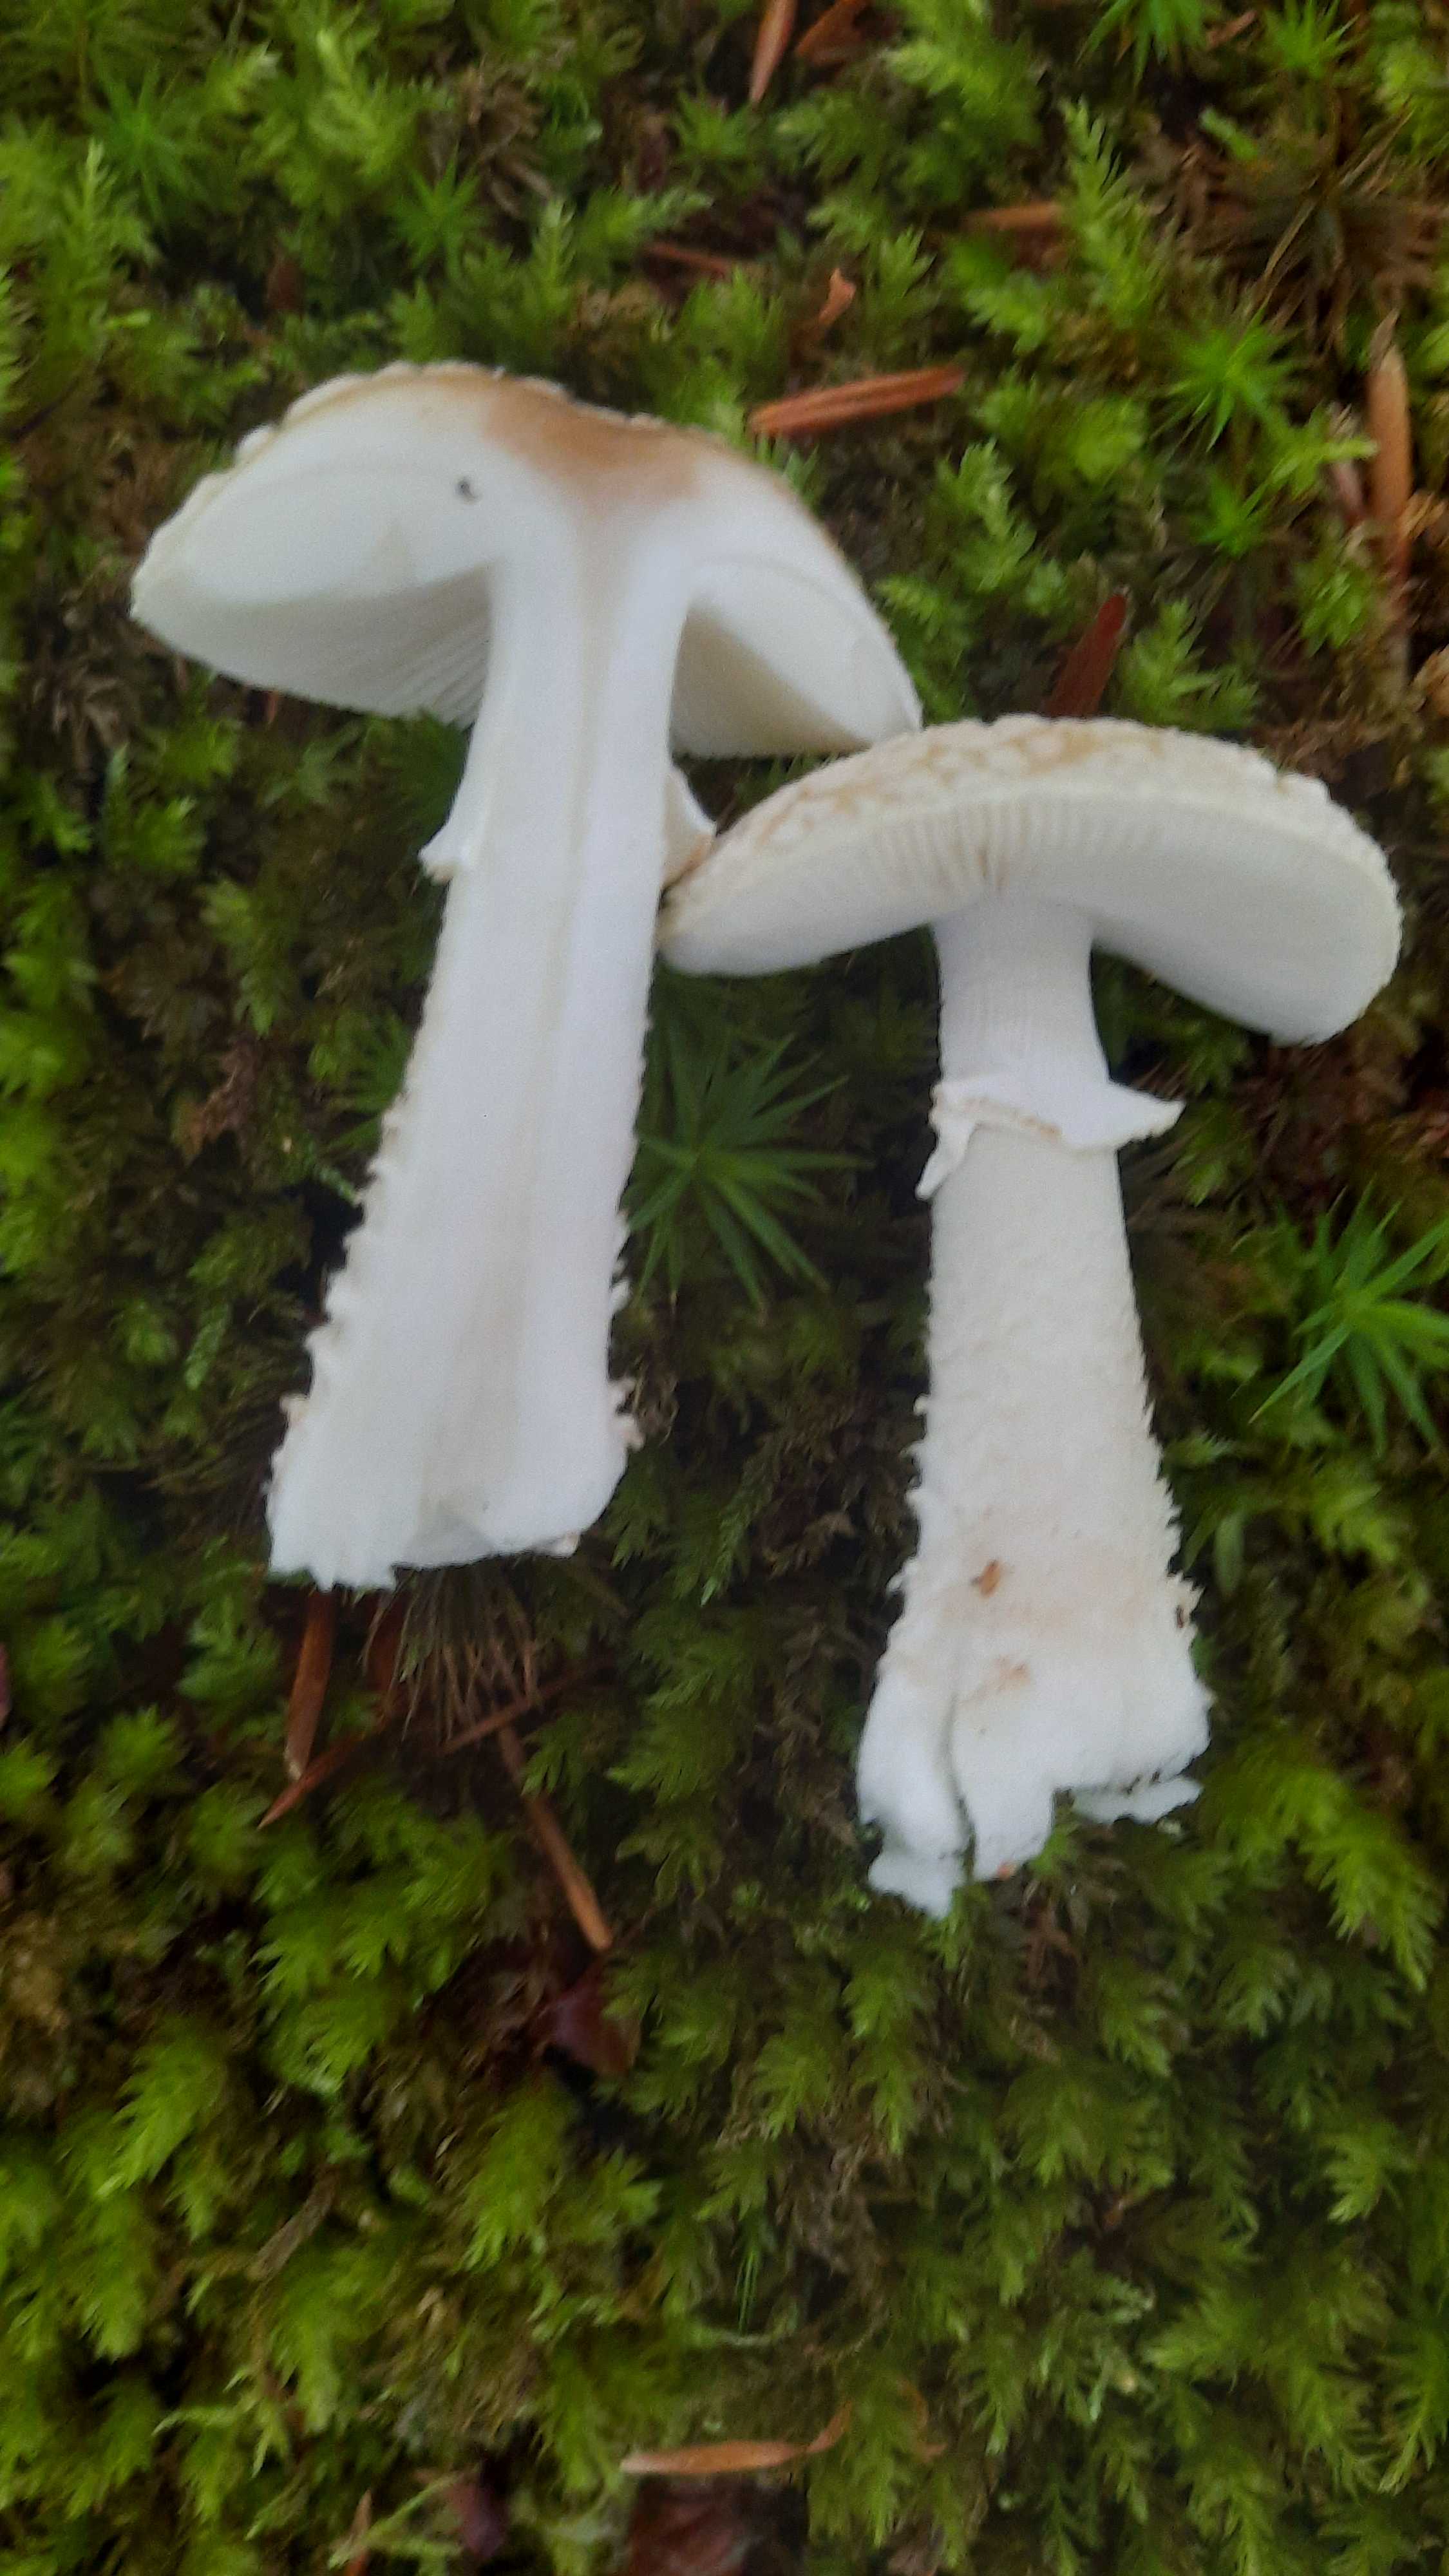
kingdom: Fungi
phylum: Basidiomycota
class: Agaricomycetes
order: Agaricales
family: Amanitaceae
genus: Amanita
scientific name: Amanita
